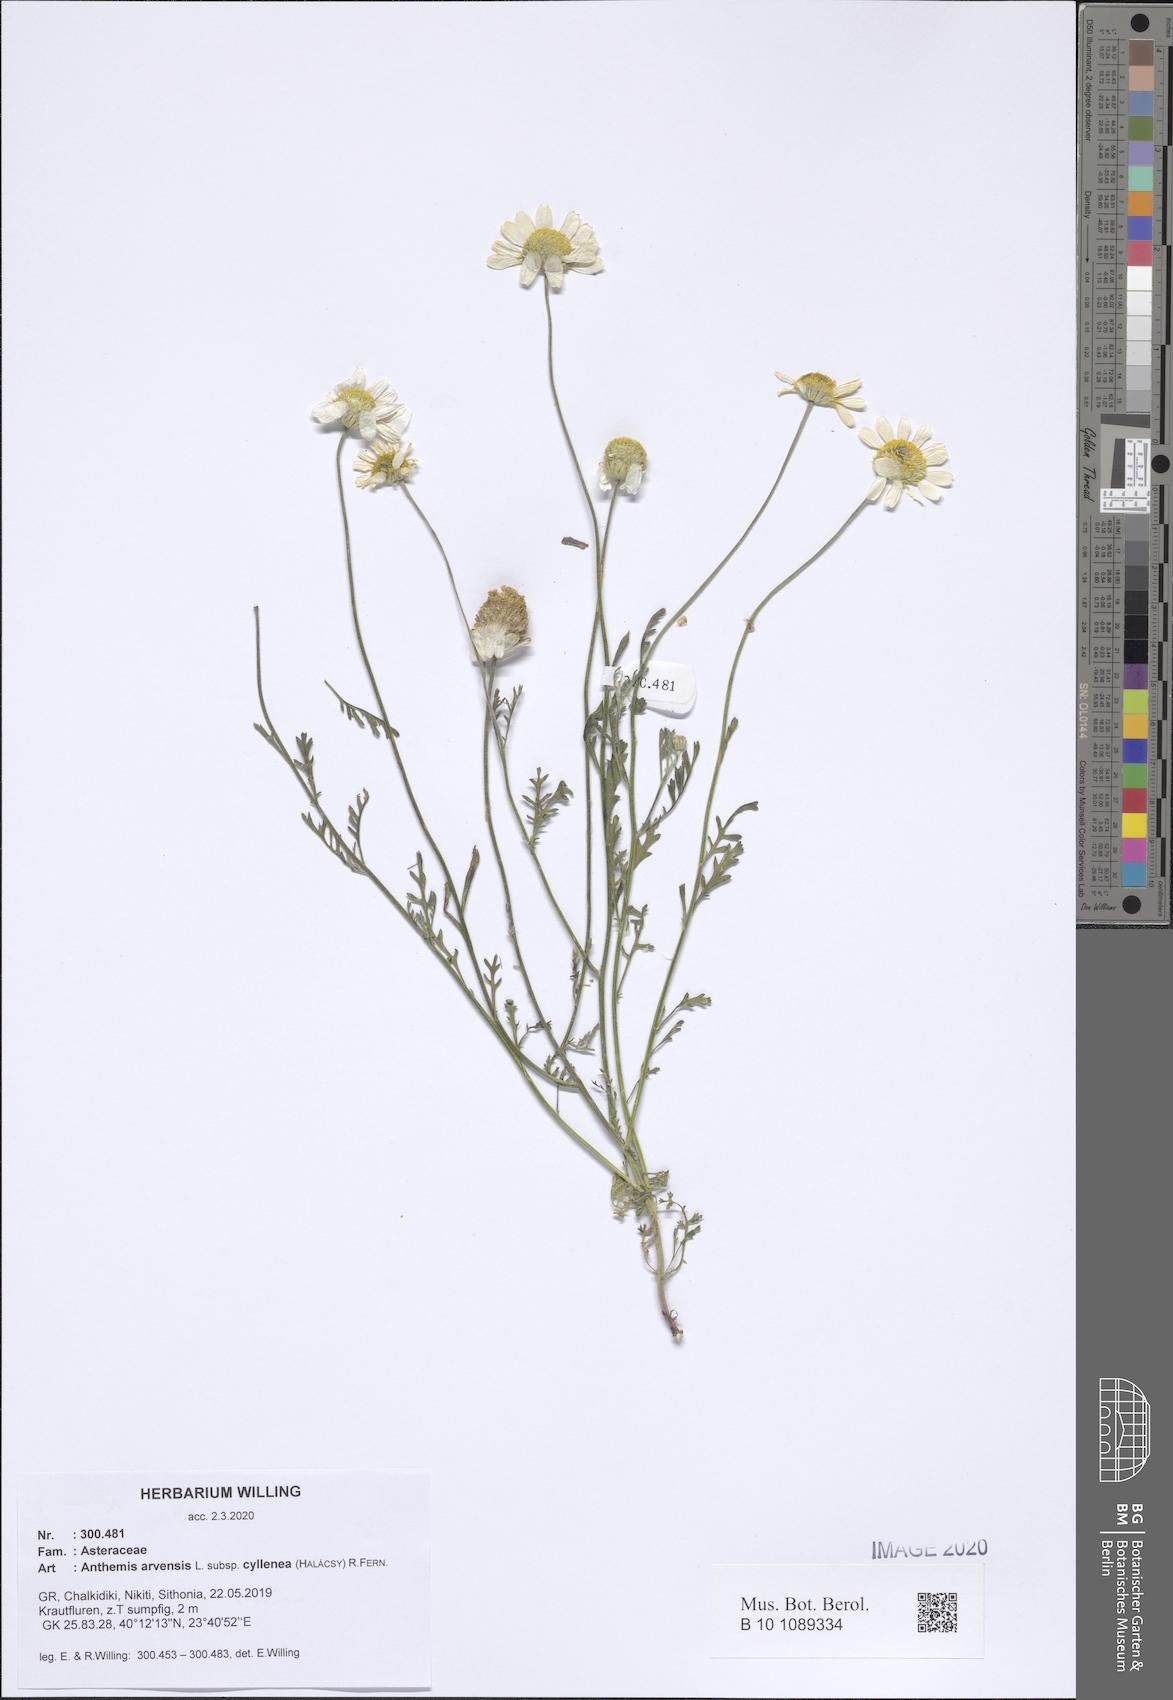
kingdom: Plantae
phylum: Tracheophyta
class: Magnoliopsida
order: Asterales
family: Asteraceae
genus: Anthemis
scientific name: Anthemis arvensis
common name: Corn chamomile
